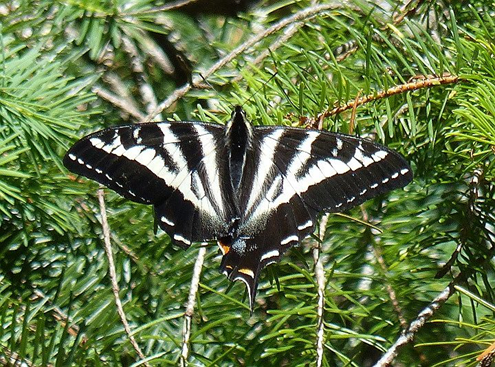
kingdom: Animalia
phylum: Arthropoda
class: Insecta
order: Lepidoptera
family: Papilionidae
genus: Pterourus
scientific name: Pterourus eurymedon
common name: Pale Swallowtail
